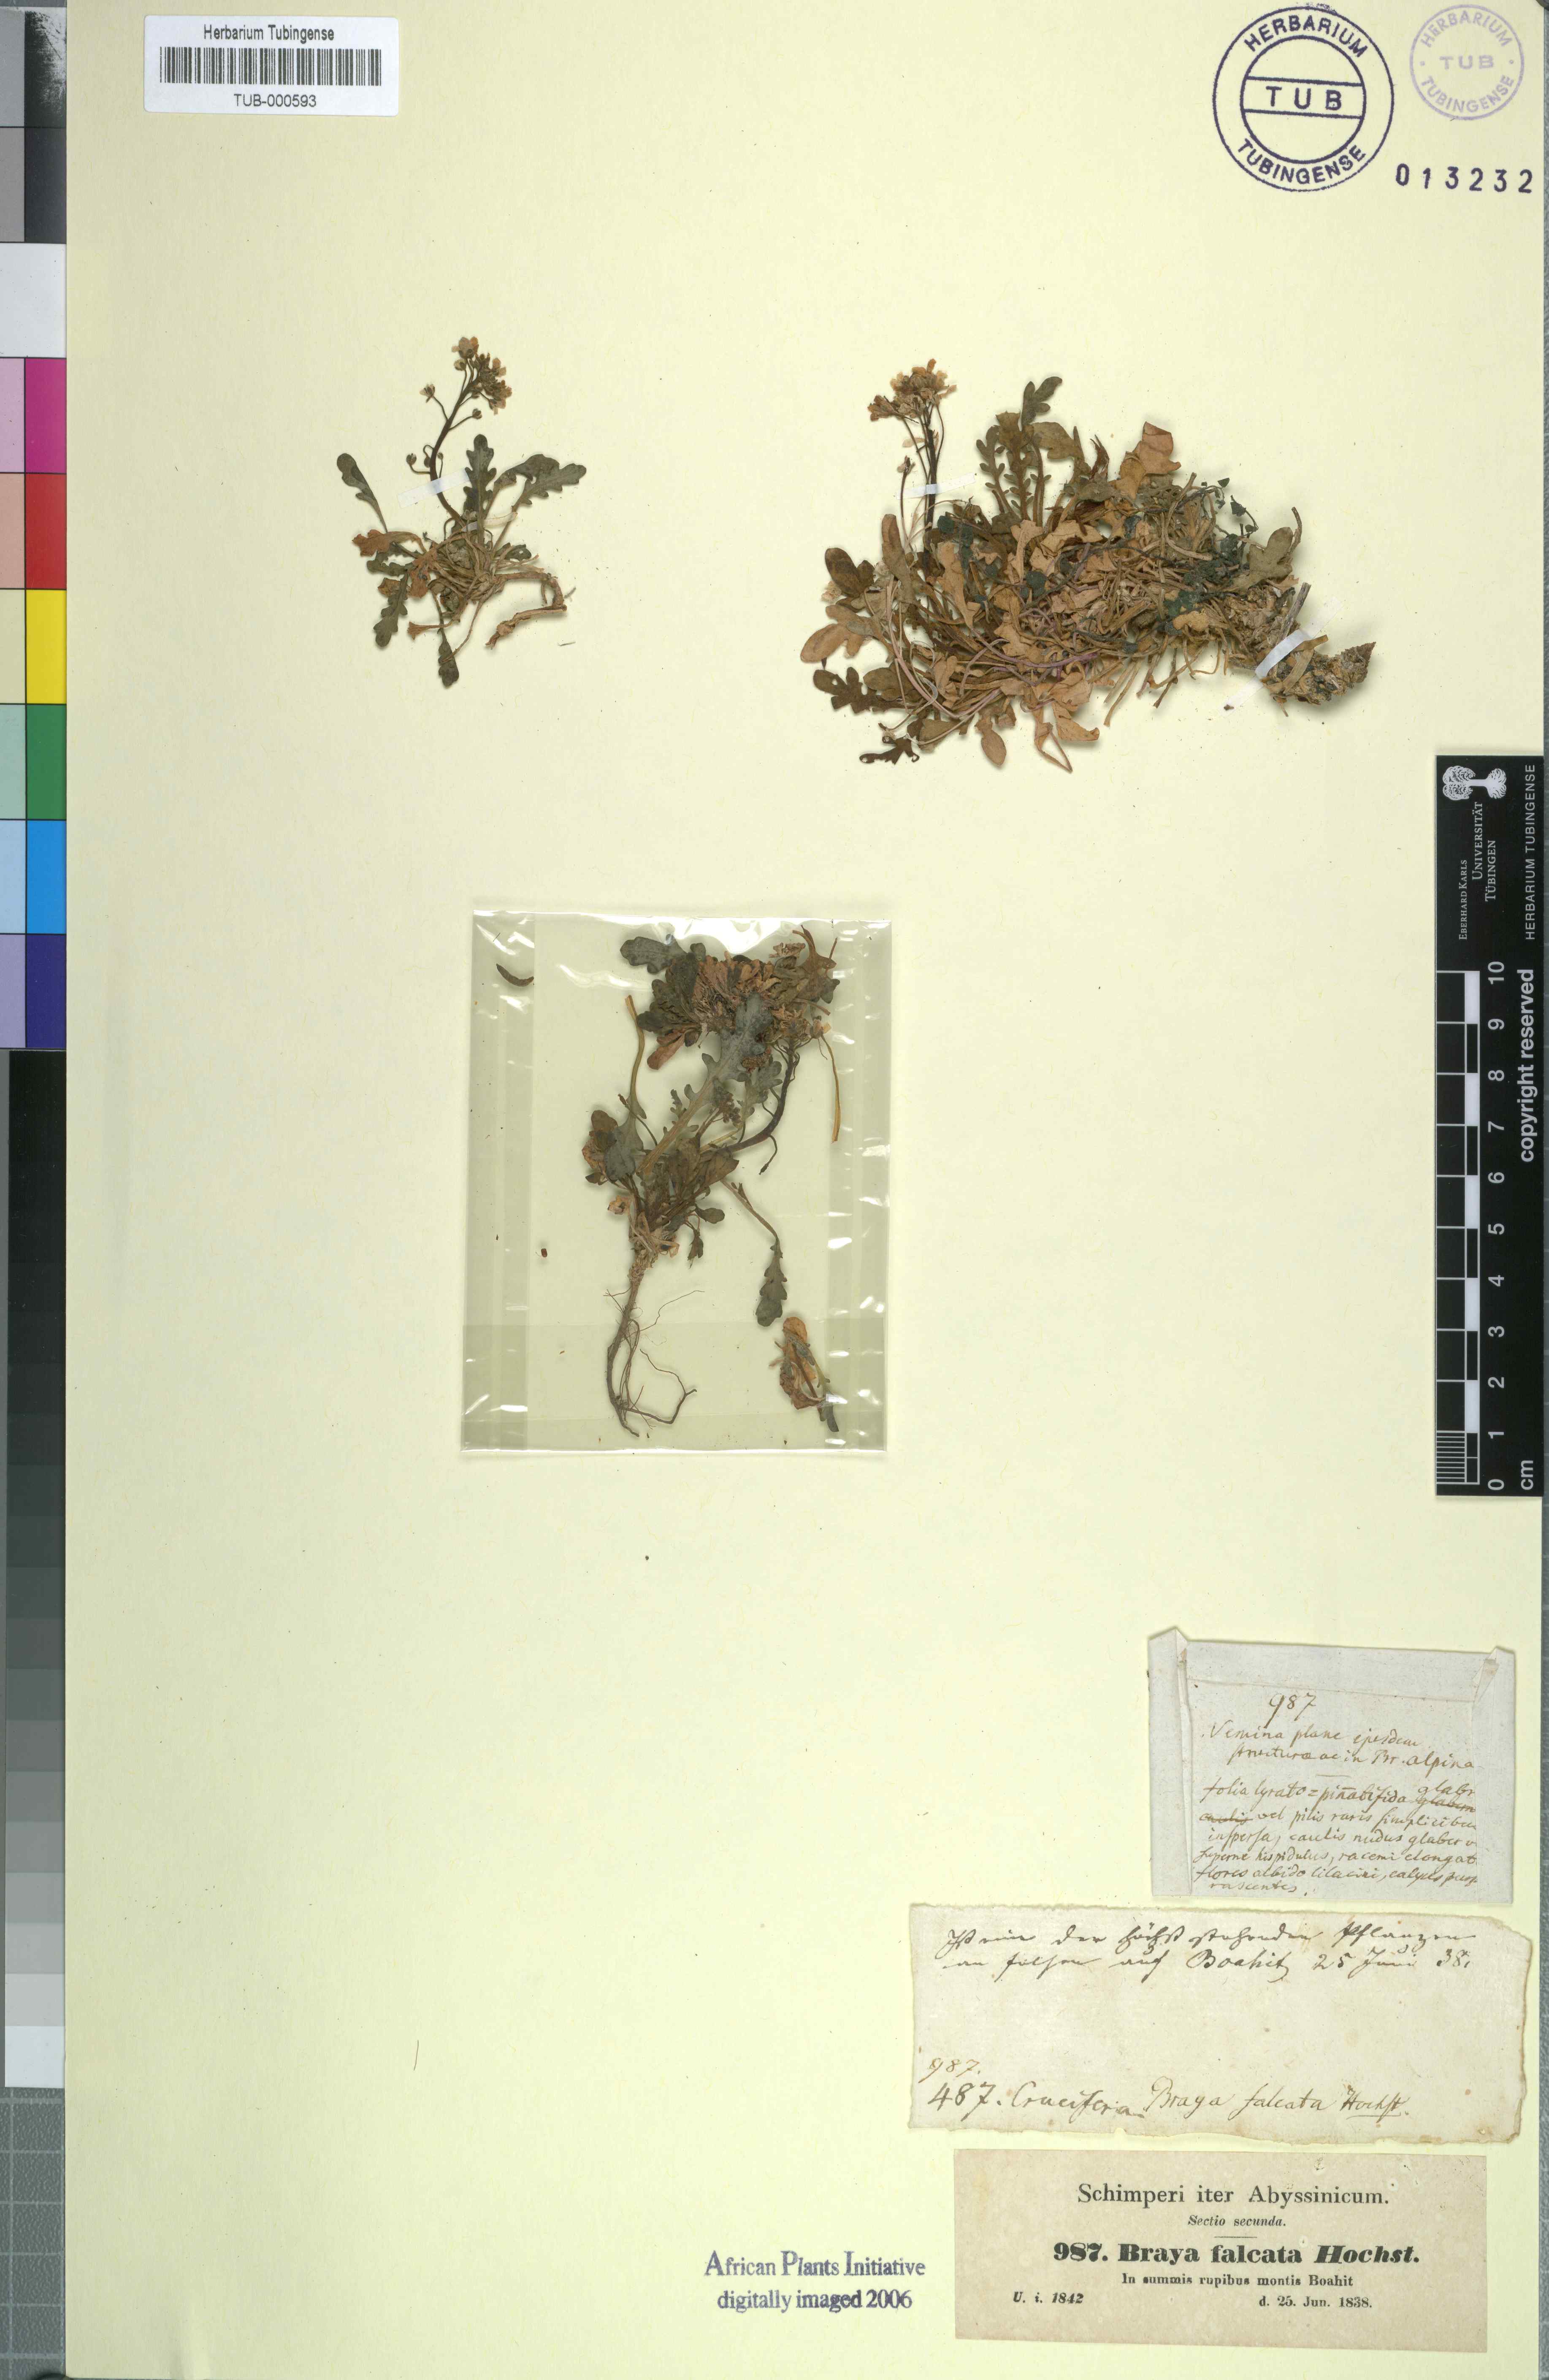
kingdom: Plantae
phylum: Tracheophyta
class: Magnoliopsida
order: Brassicales
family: Brassicaceae
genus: Oreophyton
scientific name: Oreophyton falcatum
